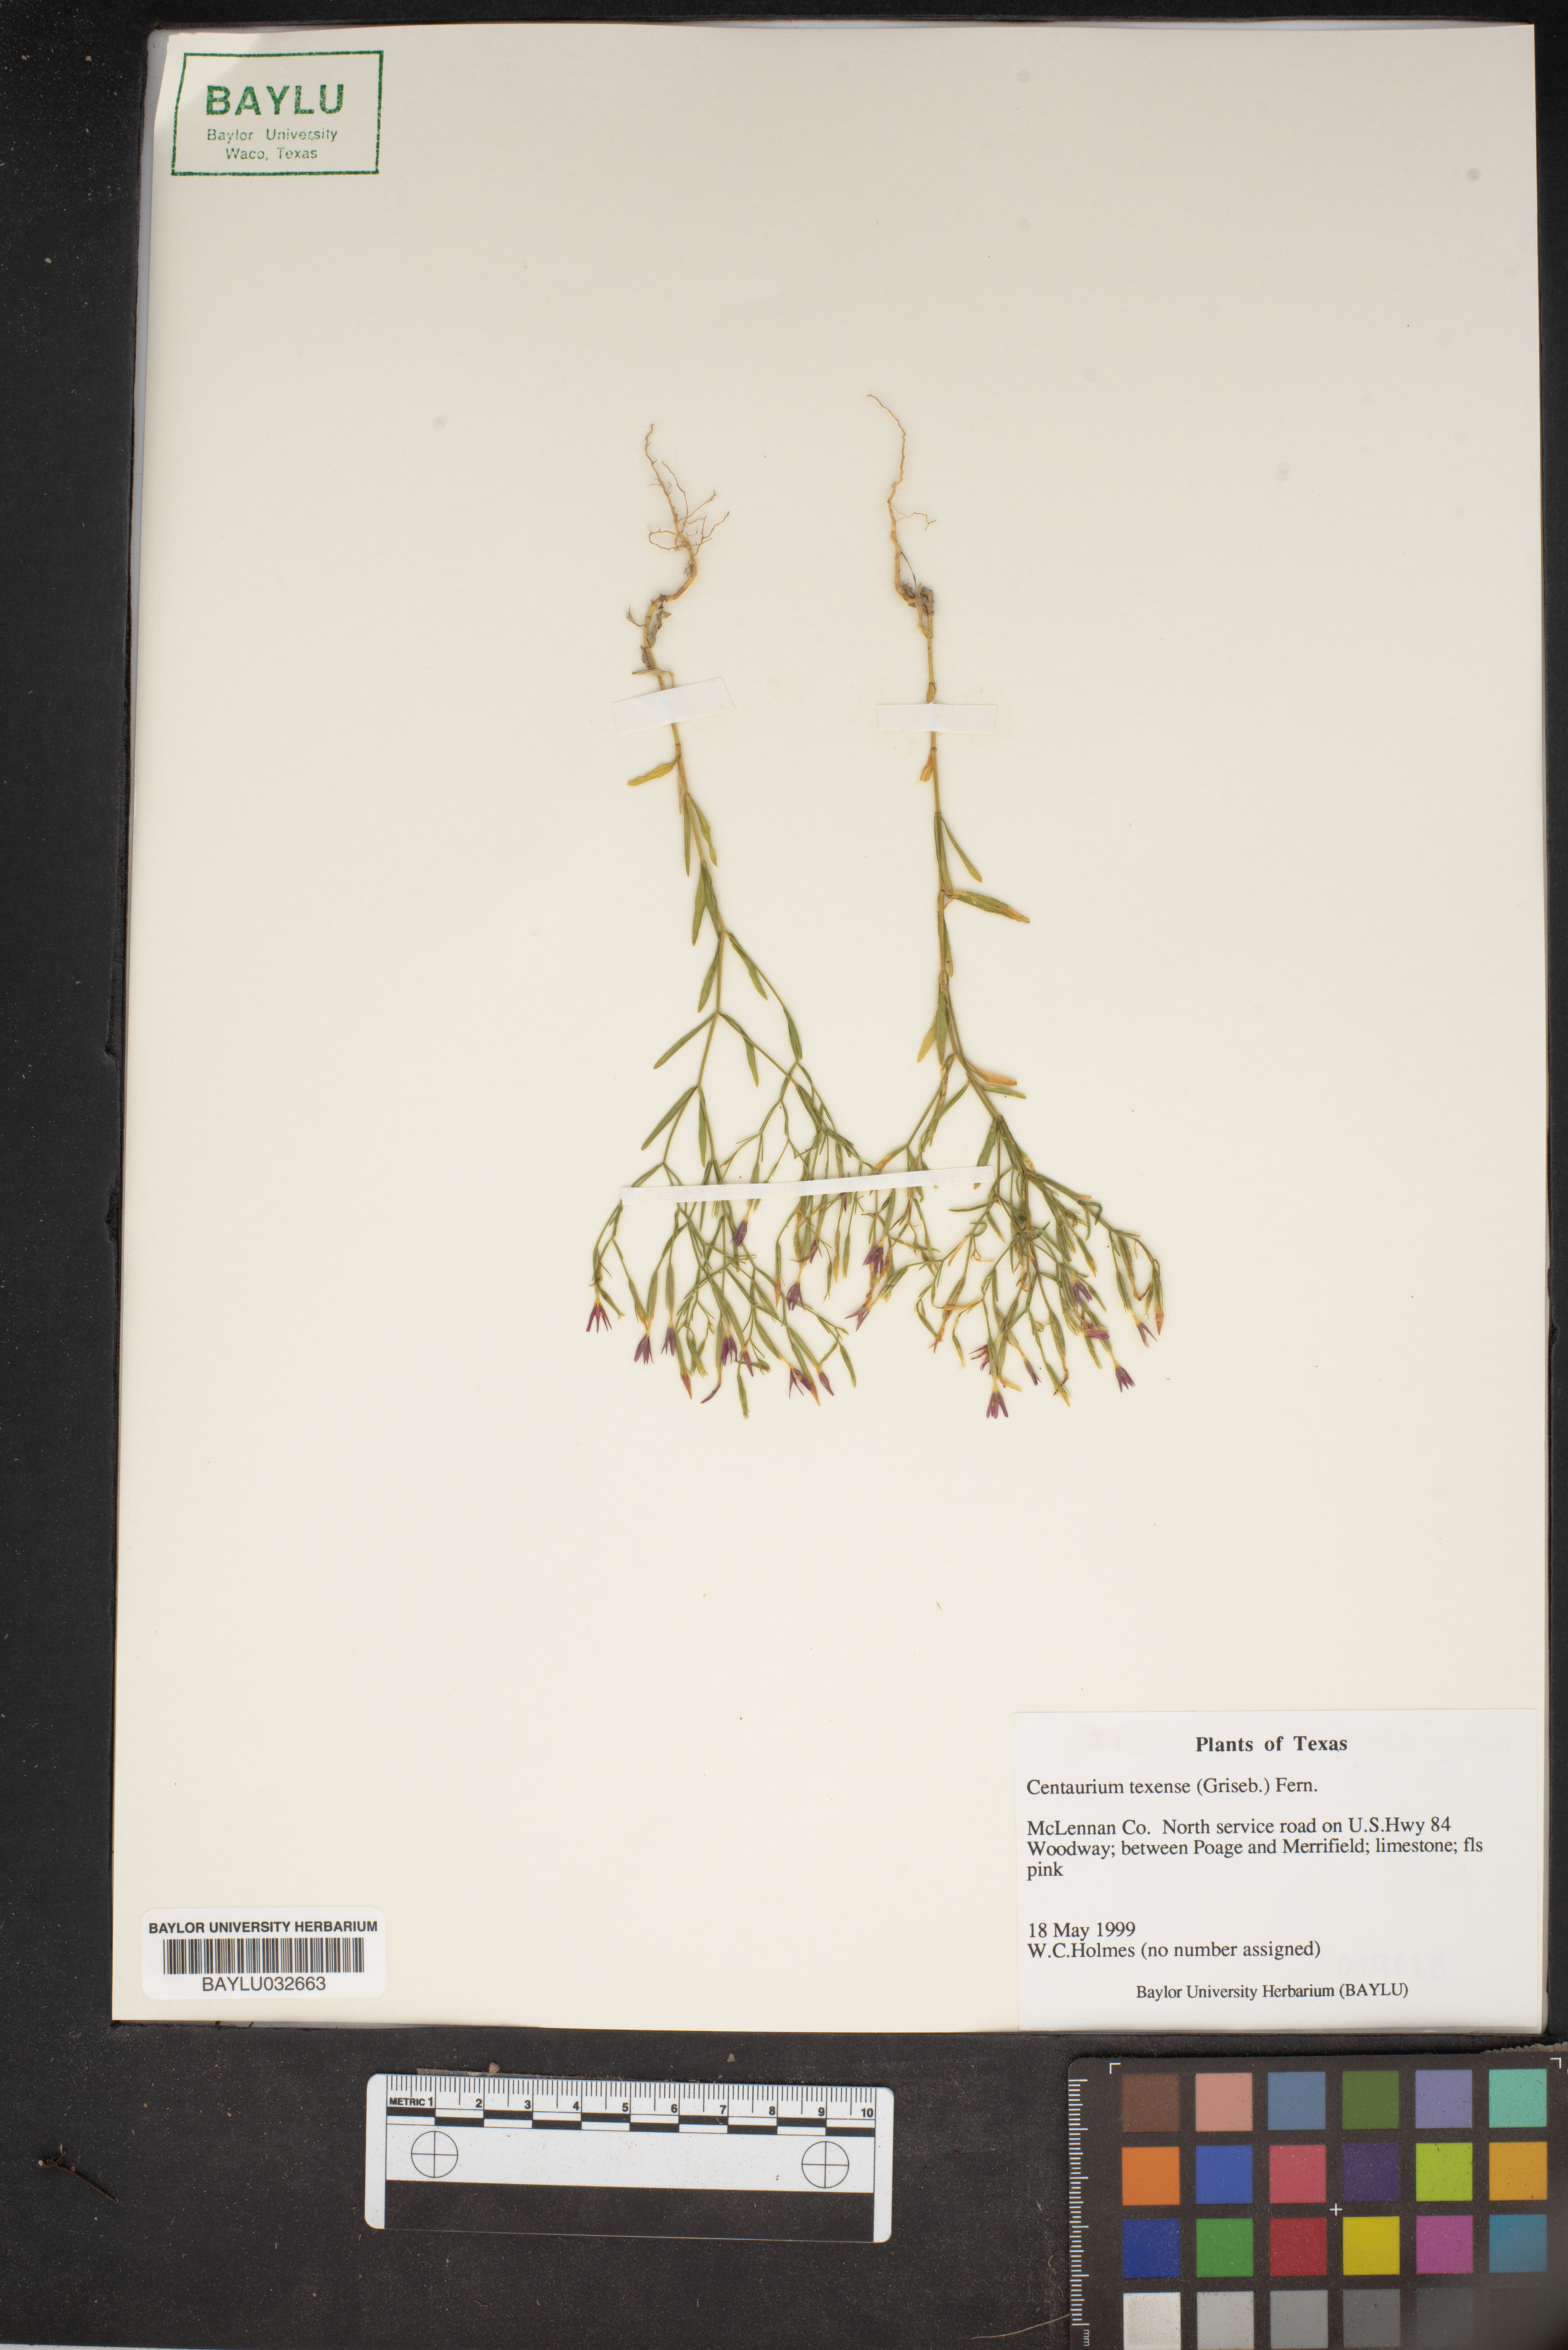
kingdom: Plantae
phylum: Tracheophyta
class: Magnoliopsida
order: Gentianales
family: Gentianaceae
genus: Zeltnera
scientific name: Zeltnera texensis
